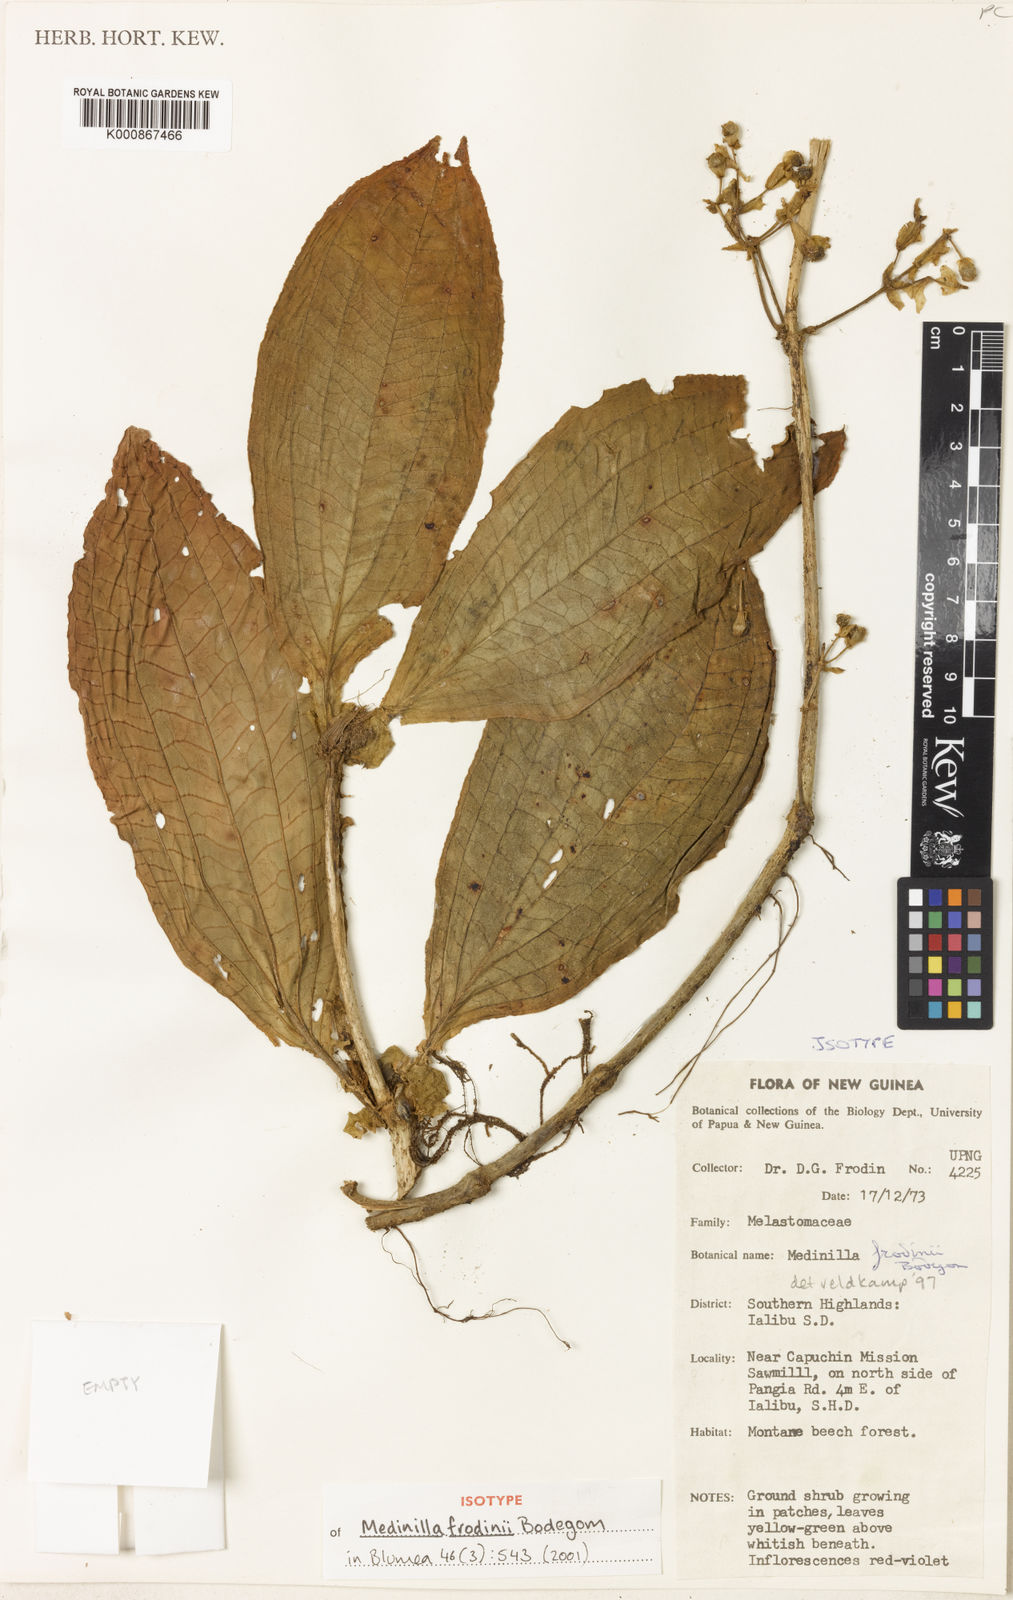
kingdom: Plantae
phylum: Tracheophyta
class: Magnoliopsida
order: Myrtales
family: Melastomataceae
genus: Medinilla
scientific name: Medinilla frodinii
